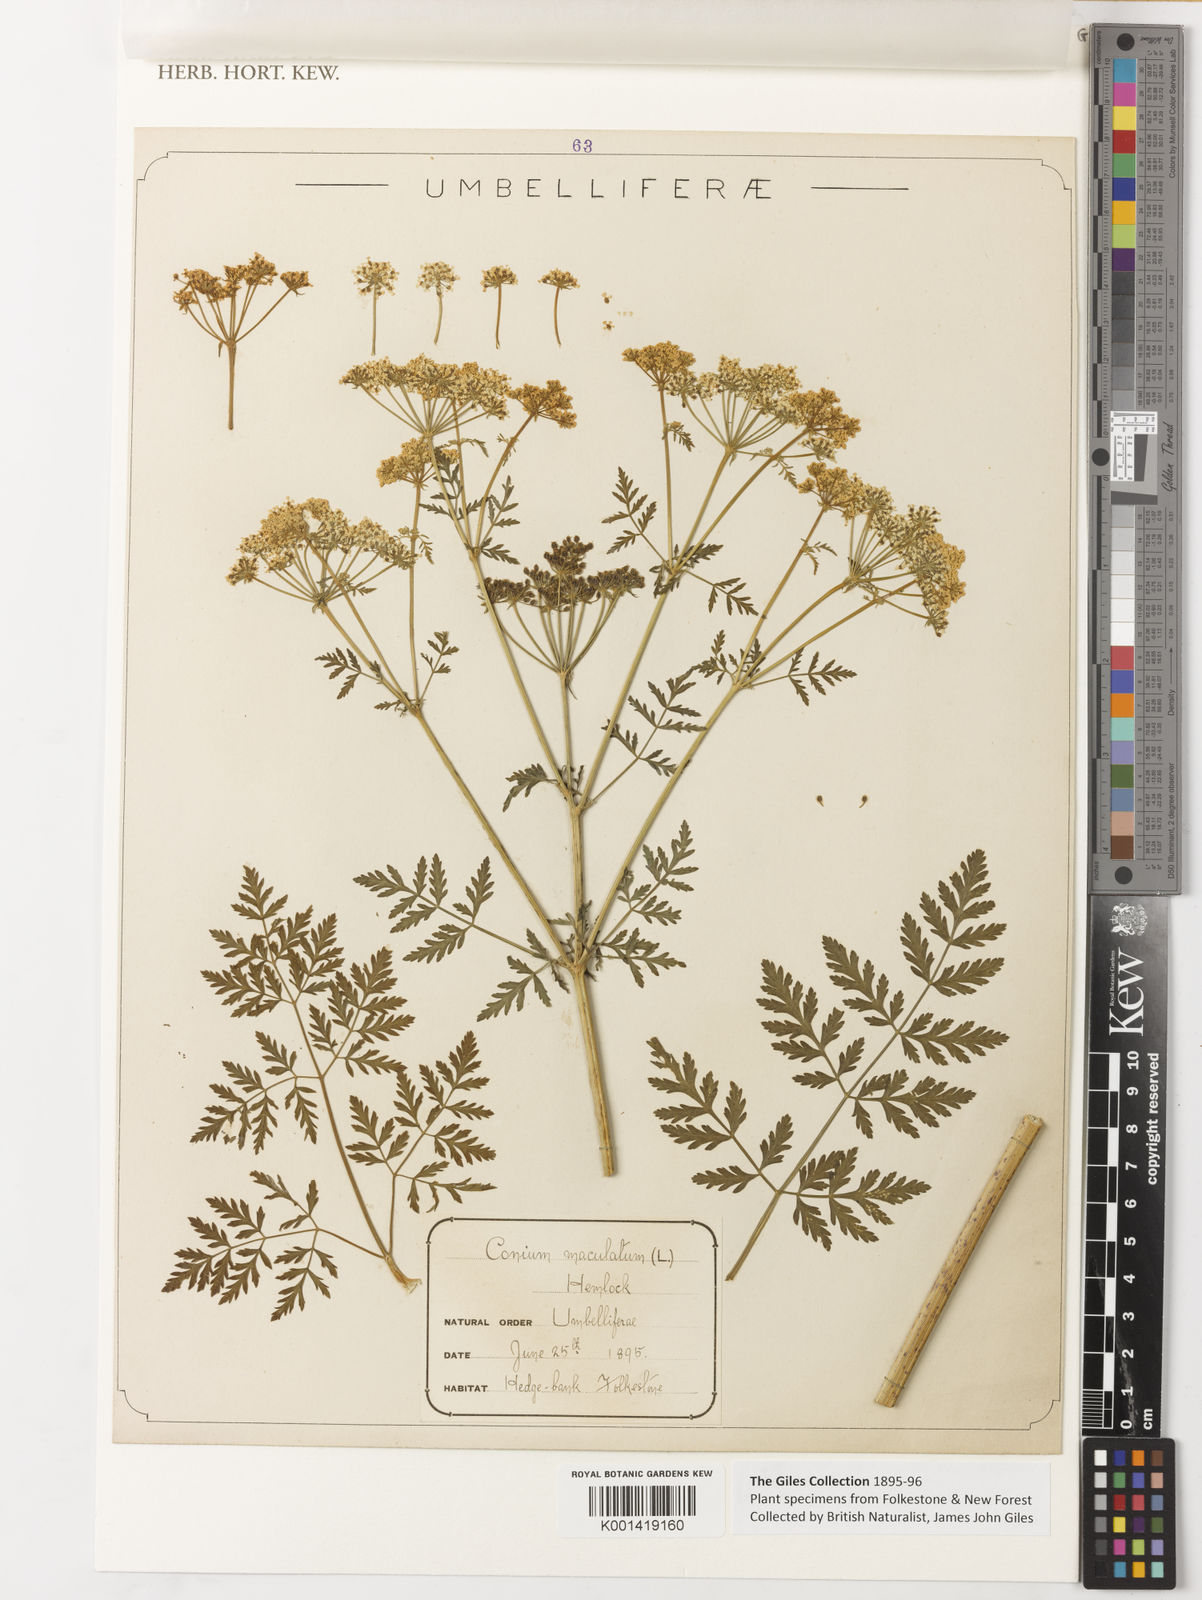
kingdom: Plantae
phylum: Tracheophyta
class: Magnoliopsida
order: Apiales
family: Apiaceae
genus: Conium
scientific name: Conium maculatum
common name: Hemlock
